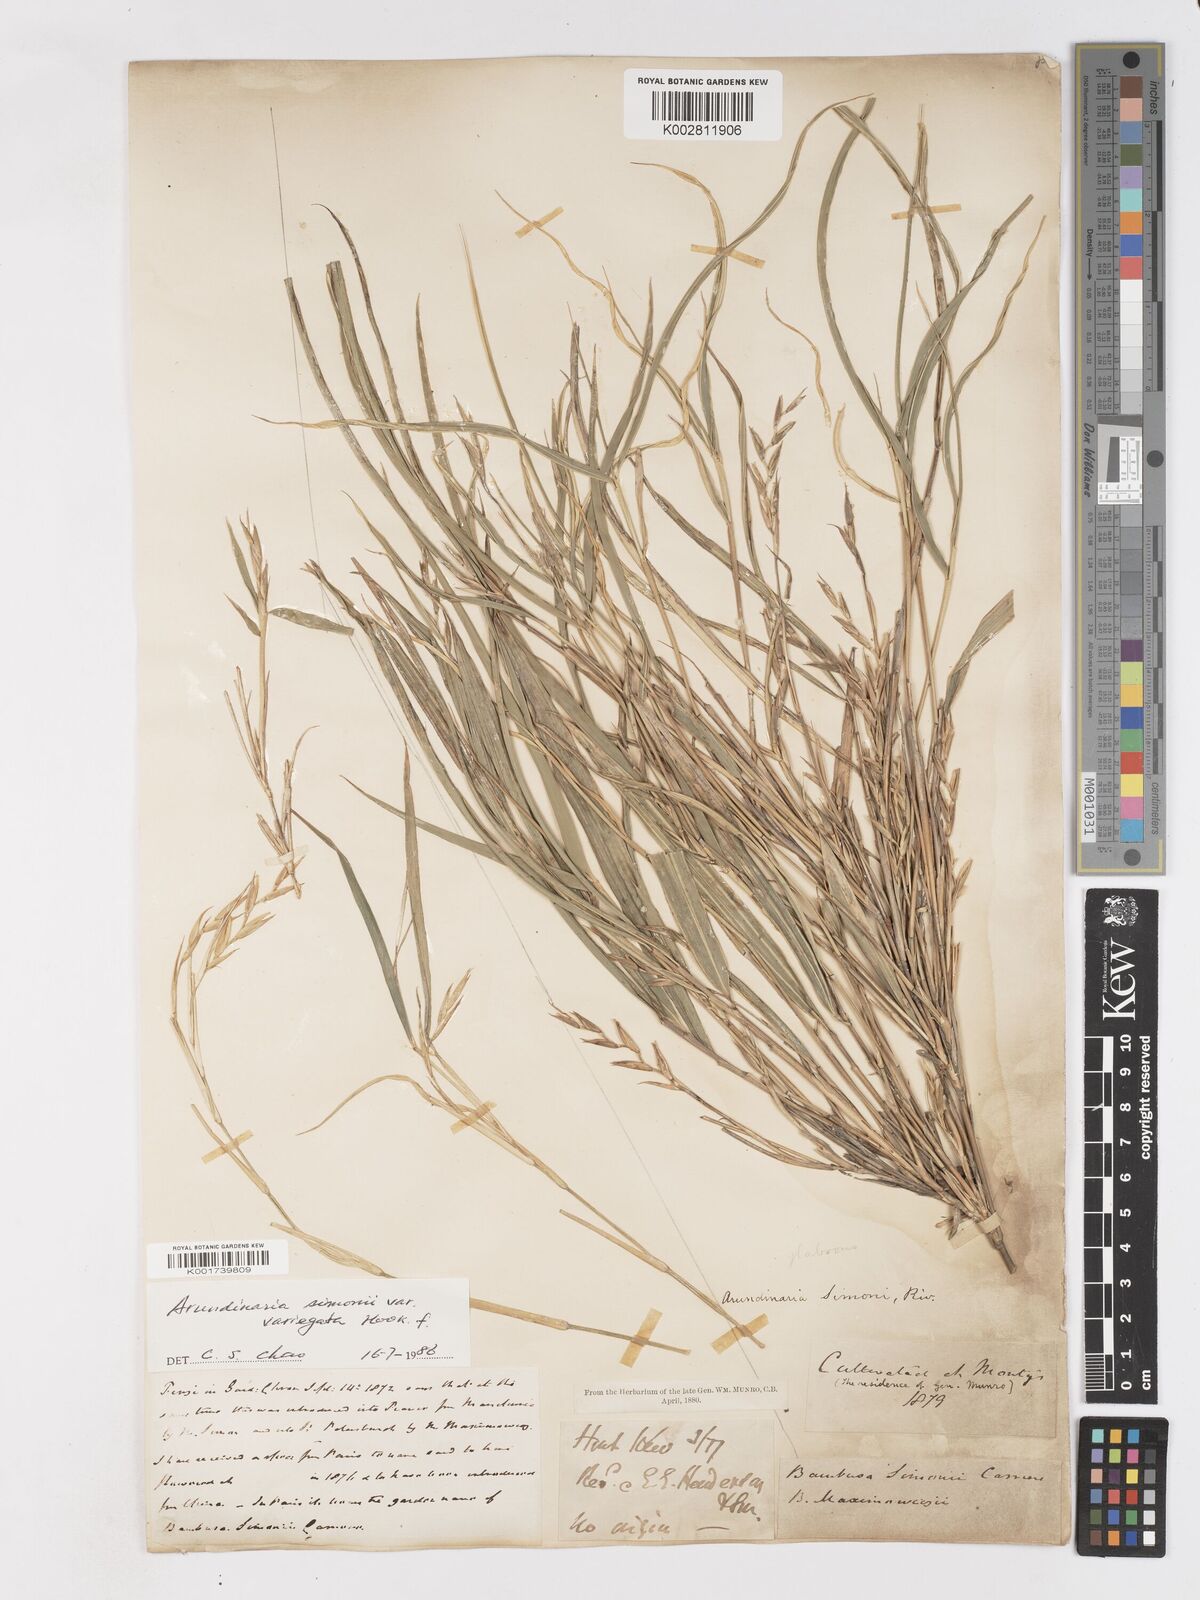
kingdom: Plantae
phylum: Tracheophyta
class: Liliopsida
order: Poales
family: Poaceae
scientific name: Poaceae
